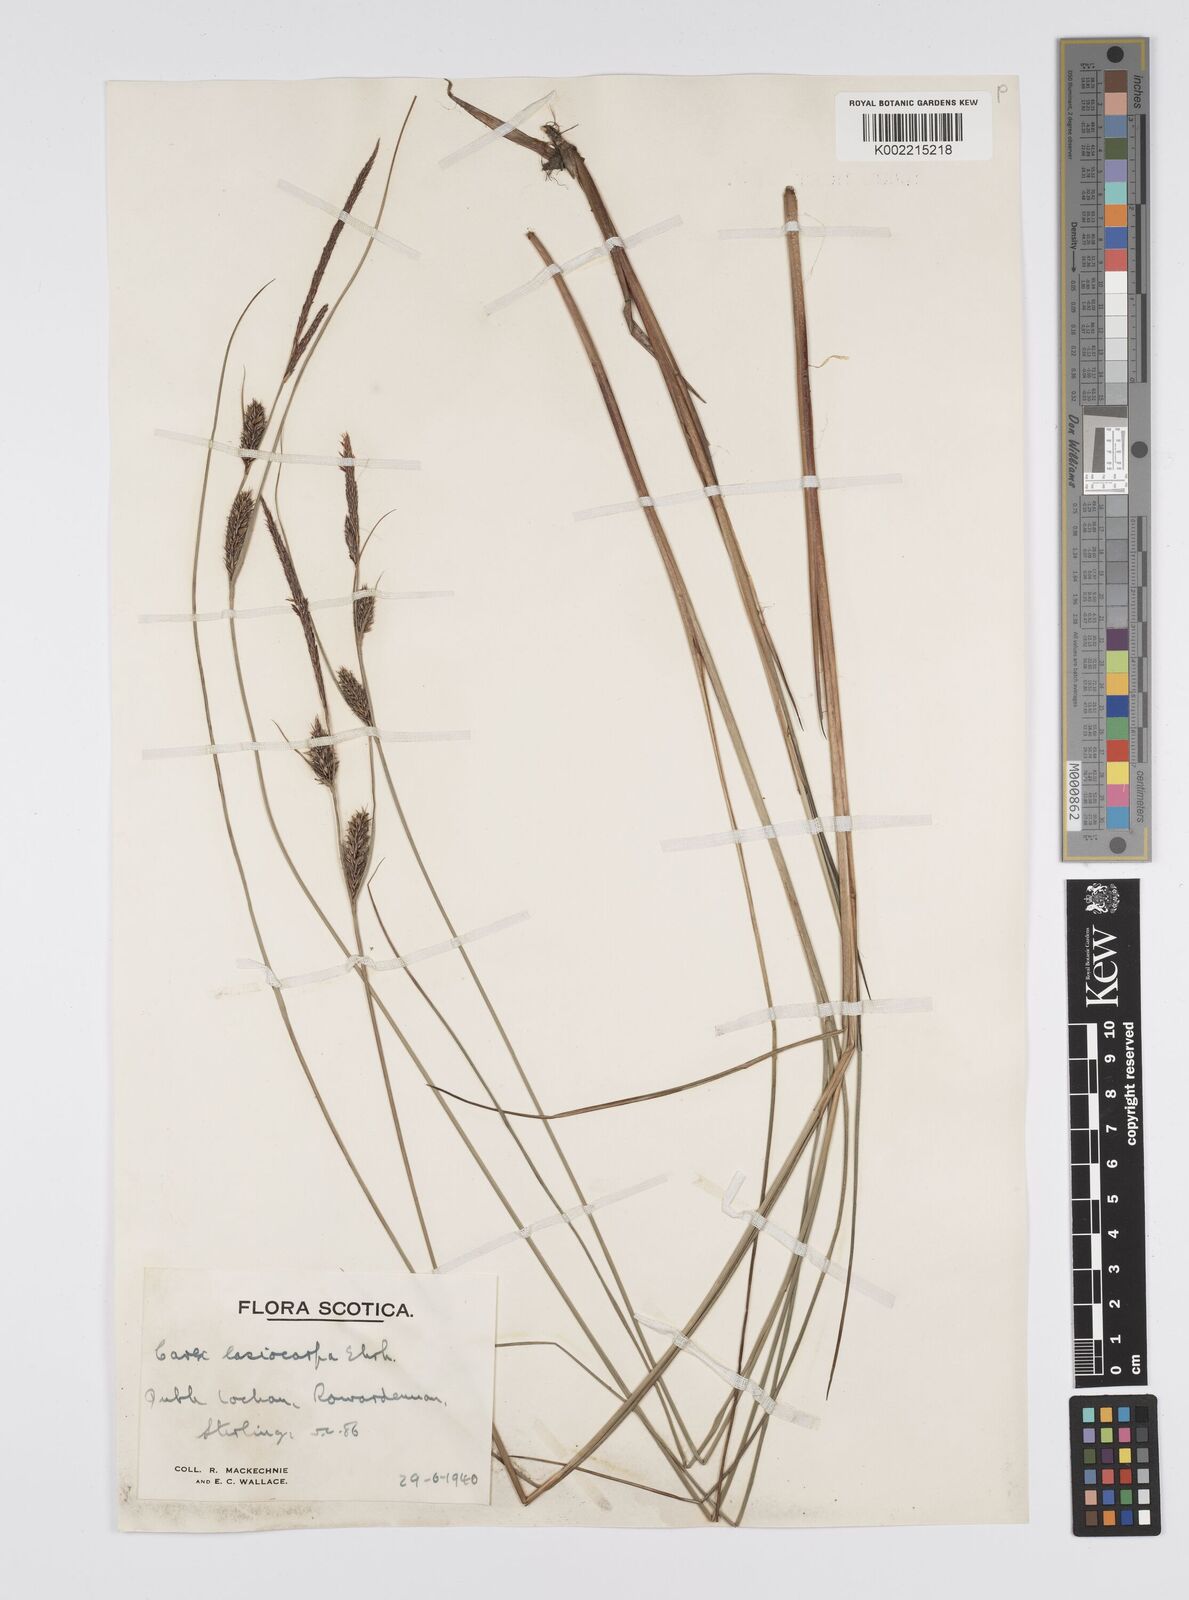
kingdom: Plantae
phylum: Tracheophyta
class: Liliopsida
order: Poales
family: Cyperaceae
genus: Carex
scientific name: Carex lasiocarpa
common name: Slender sedge
